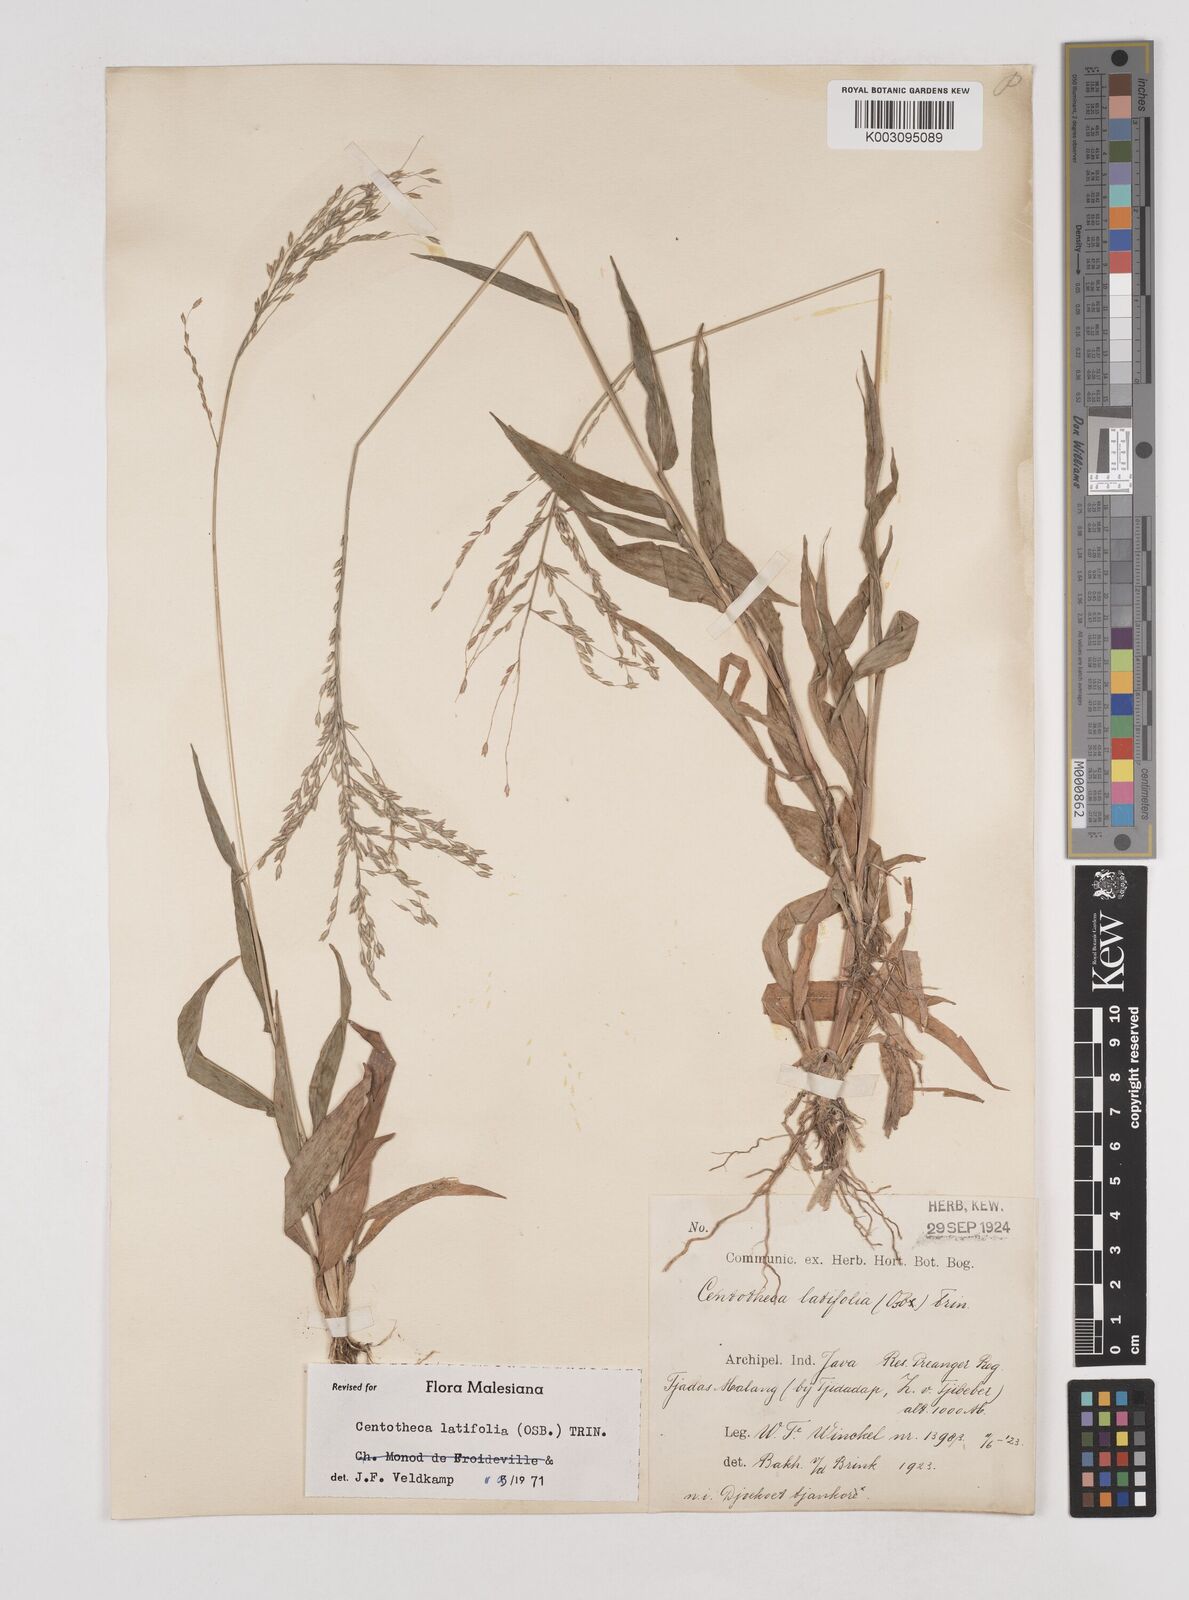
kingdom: Plantae
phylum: Tracheophyta
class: Liliopsida
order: Poales
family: Poaceae
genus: Centotheca
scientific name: Centotheca lappacea
